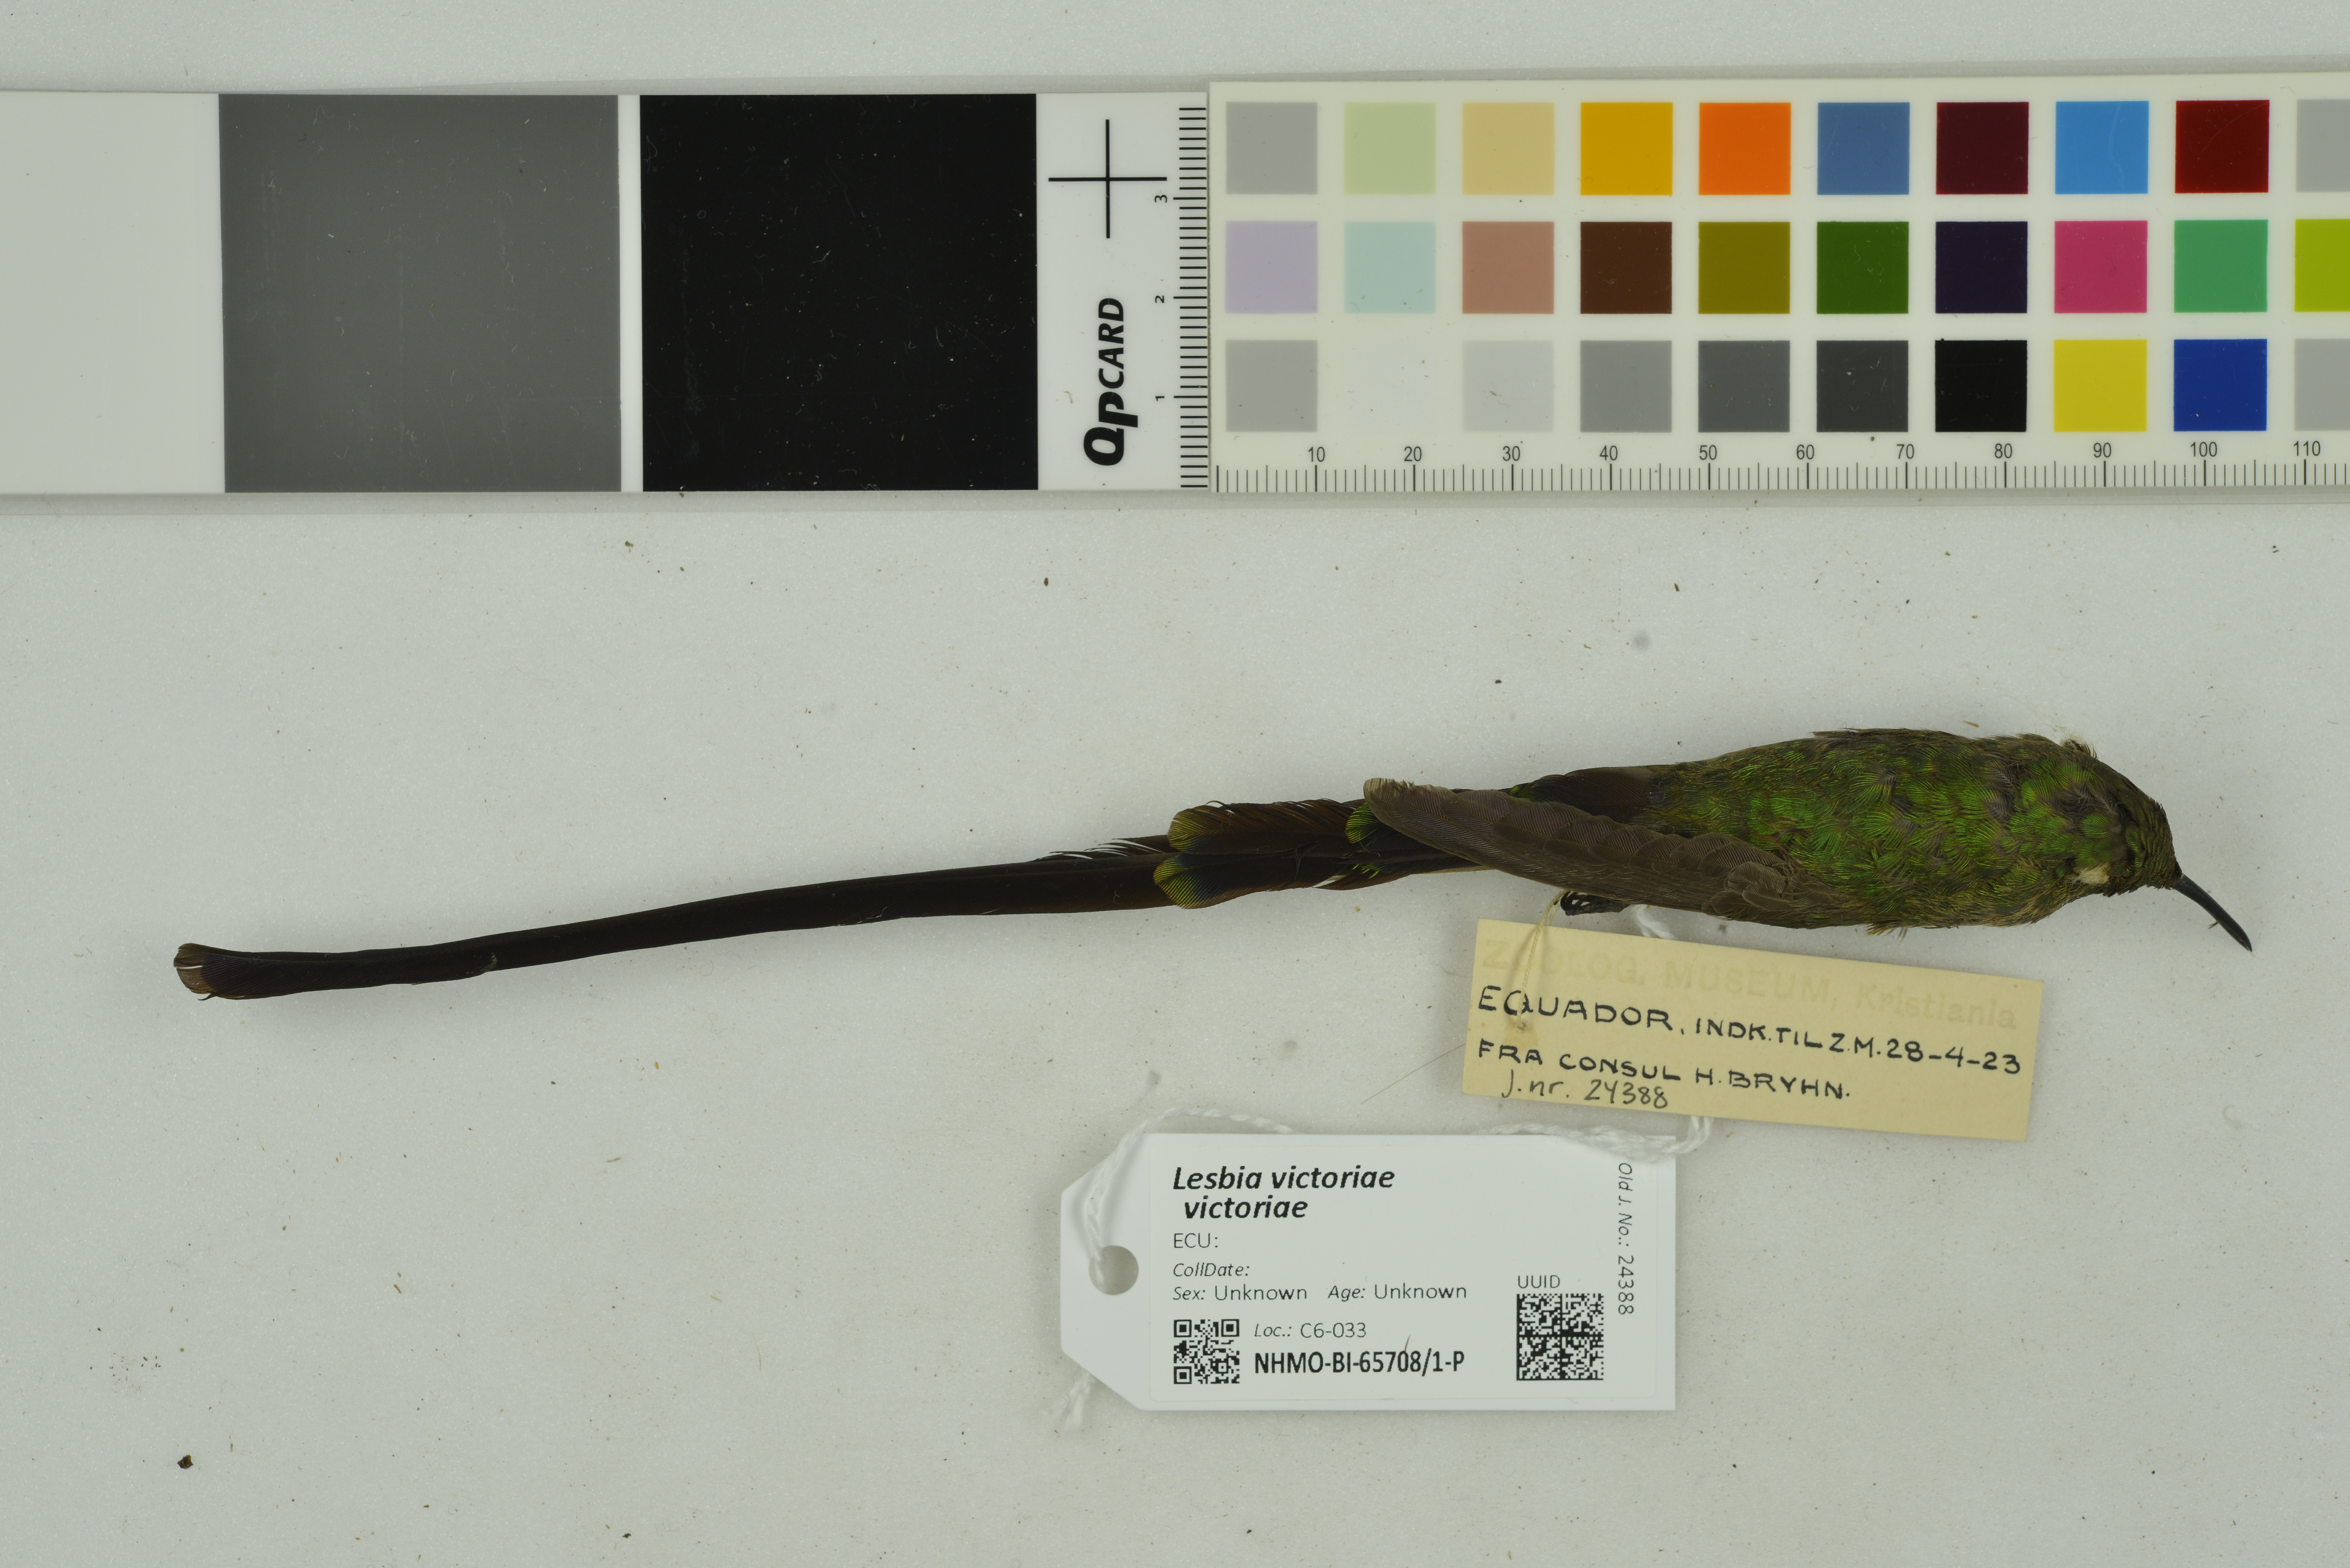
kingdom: Animalia
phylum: Chordata
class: Aves
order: Apodiformes
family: Trochilidae
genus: Lesbia
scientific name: Lesbia victoriae
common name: Black-tailed trainbearer
